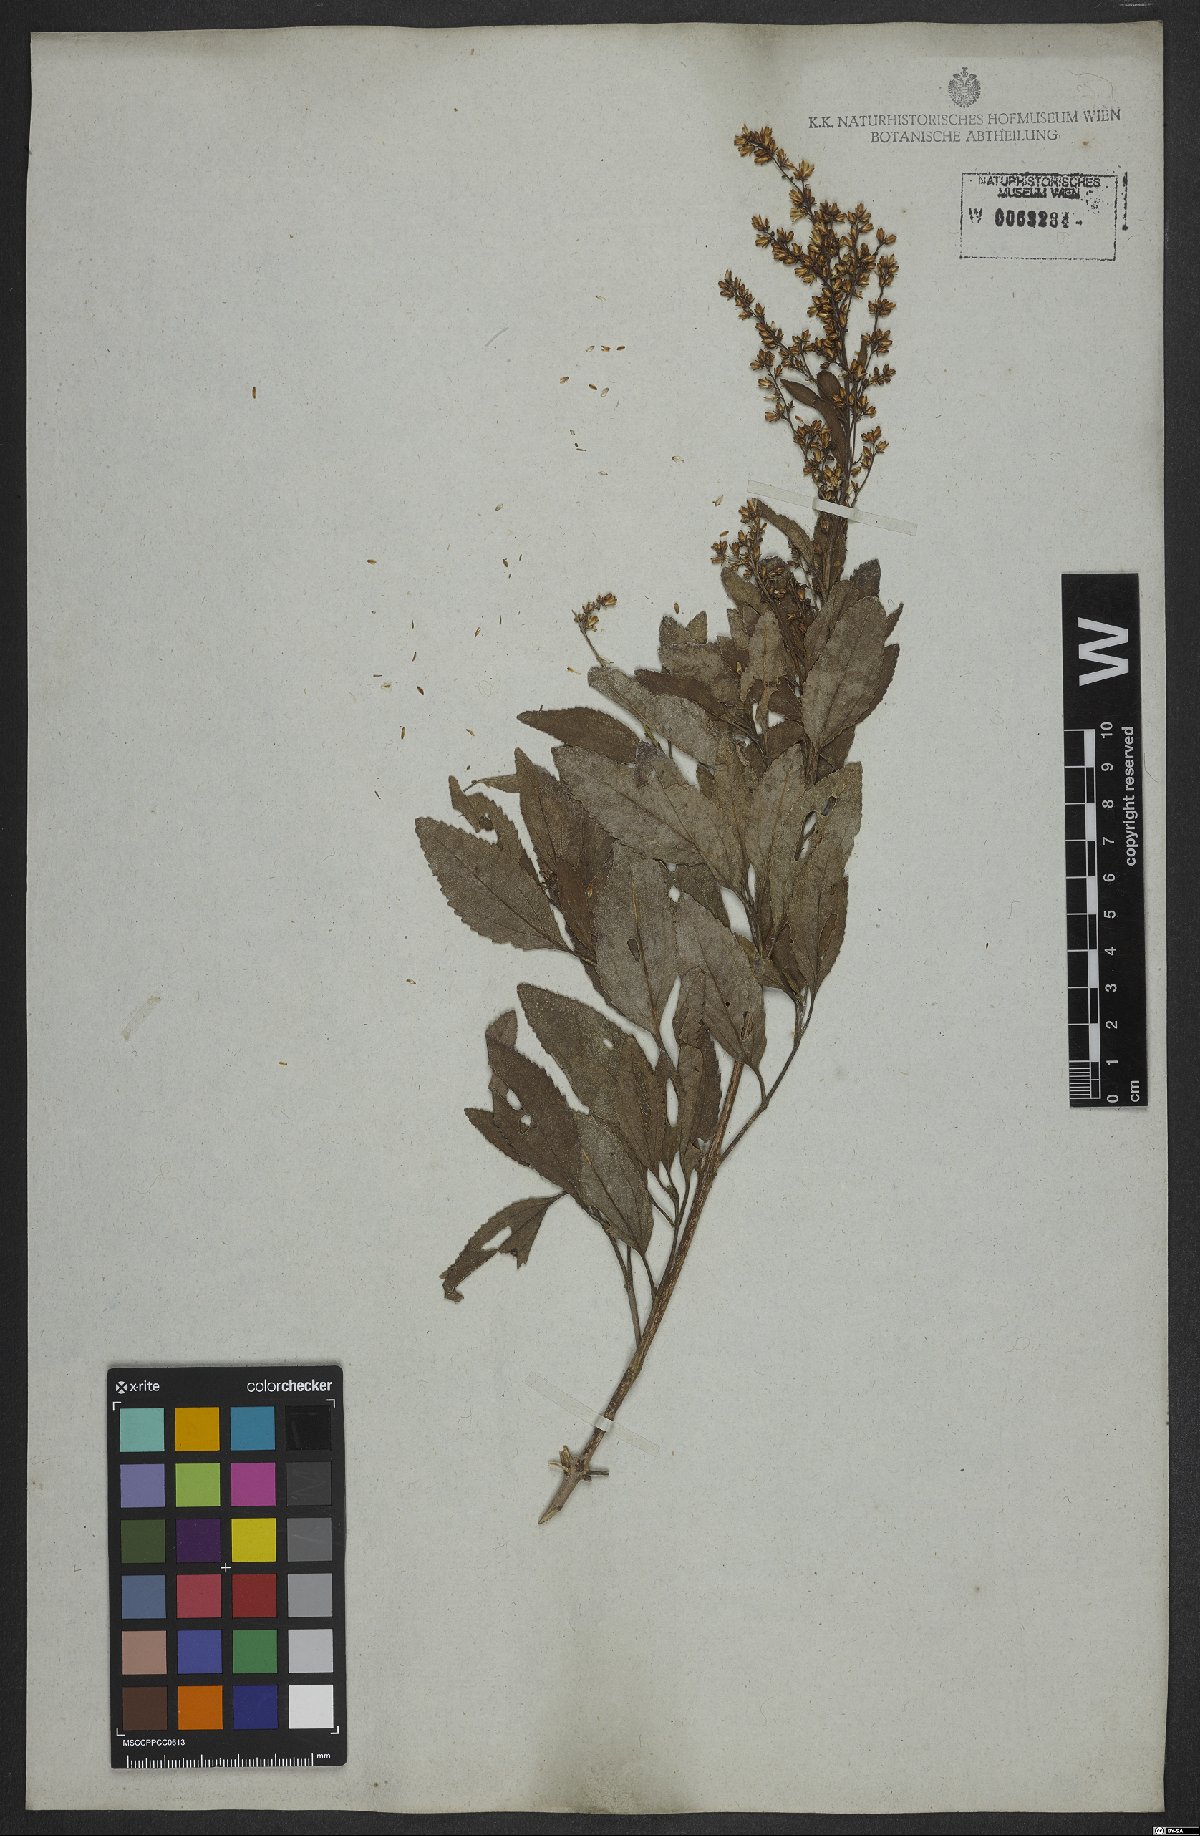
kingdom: Plantae
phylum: Tracheophyta
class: Magnoliopsida
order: Asterales
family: Asteraceae
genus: Ophryosporus
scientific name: Ophryosporus freyreysi
